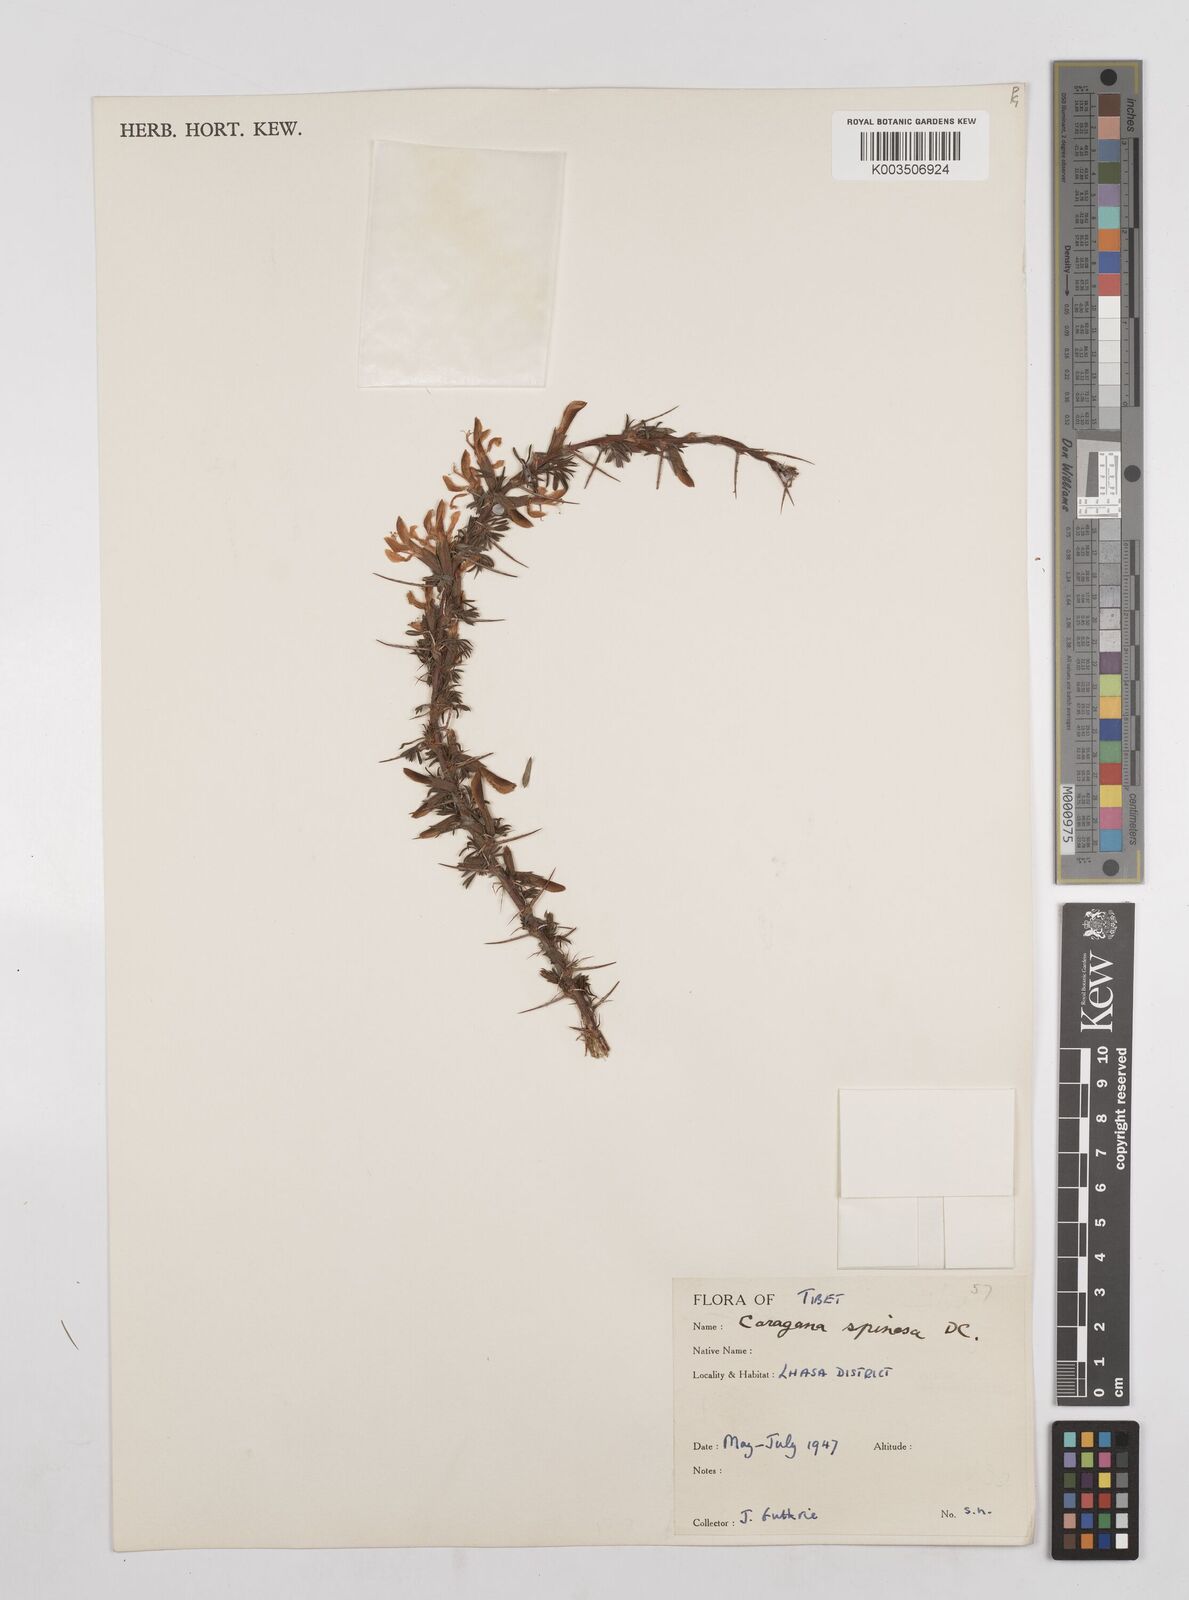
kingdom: Plantae
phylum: Tracheophyta
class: Magnoliopsida
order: Fabales
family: Fabaceae
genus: Caragana
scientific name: Caragana spinosa
